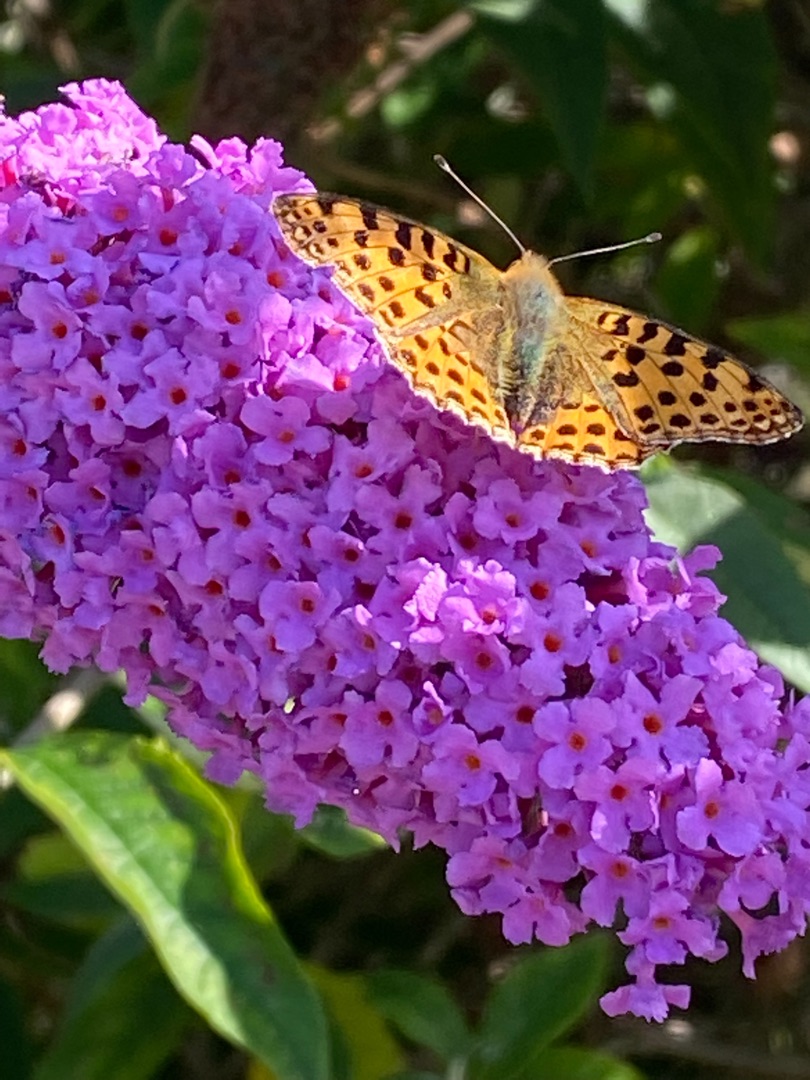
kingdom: Animalia
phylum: Arthropoda
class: Insecta
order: Lepidoptera
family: Nymphalidae
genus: Issoria
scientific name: Issoria lathonia
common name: Storplettet perlemorsommerfugl
